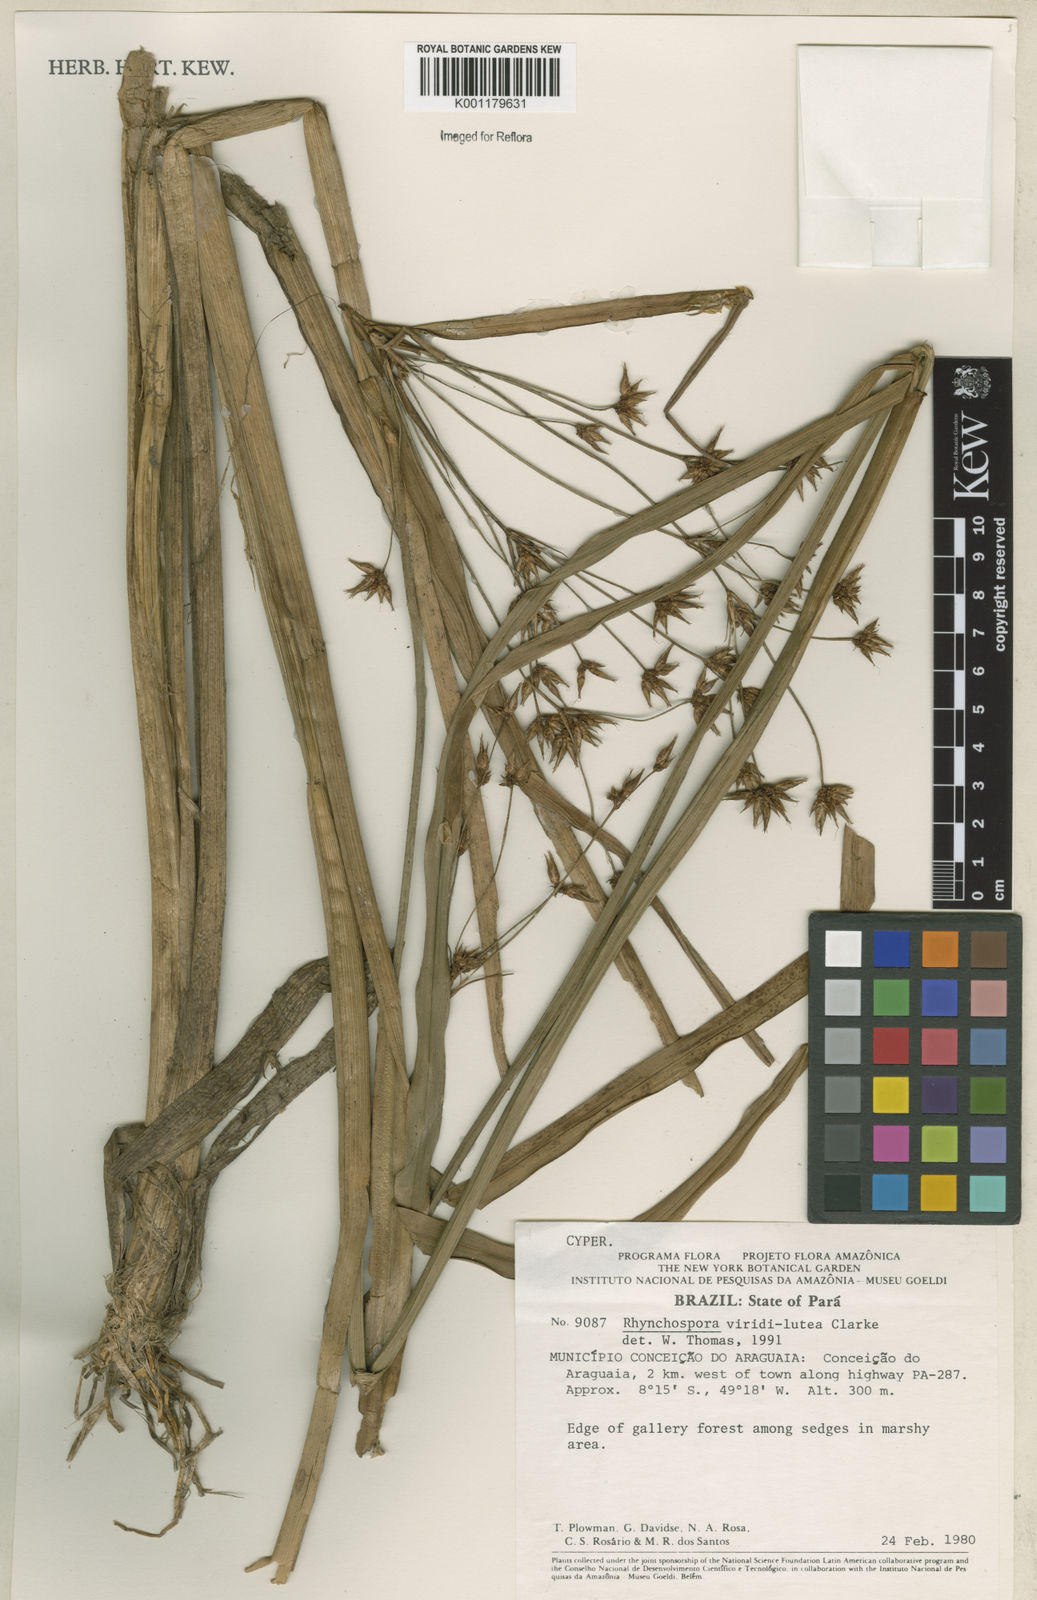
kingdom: Plantae
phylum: Tracheophyta
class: Liliopsida
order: Poales
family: Cyperaceae
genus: Rhynchospora
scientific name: Rhynchospora hassleri
